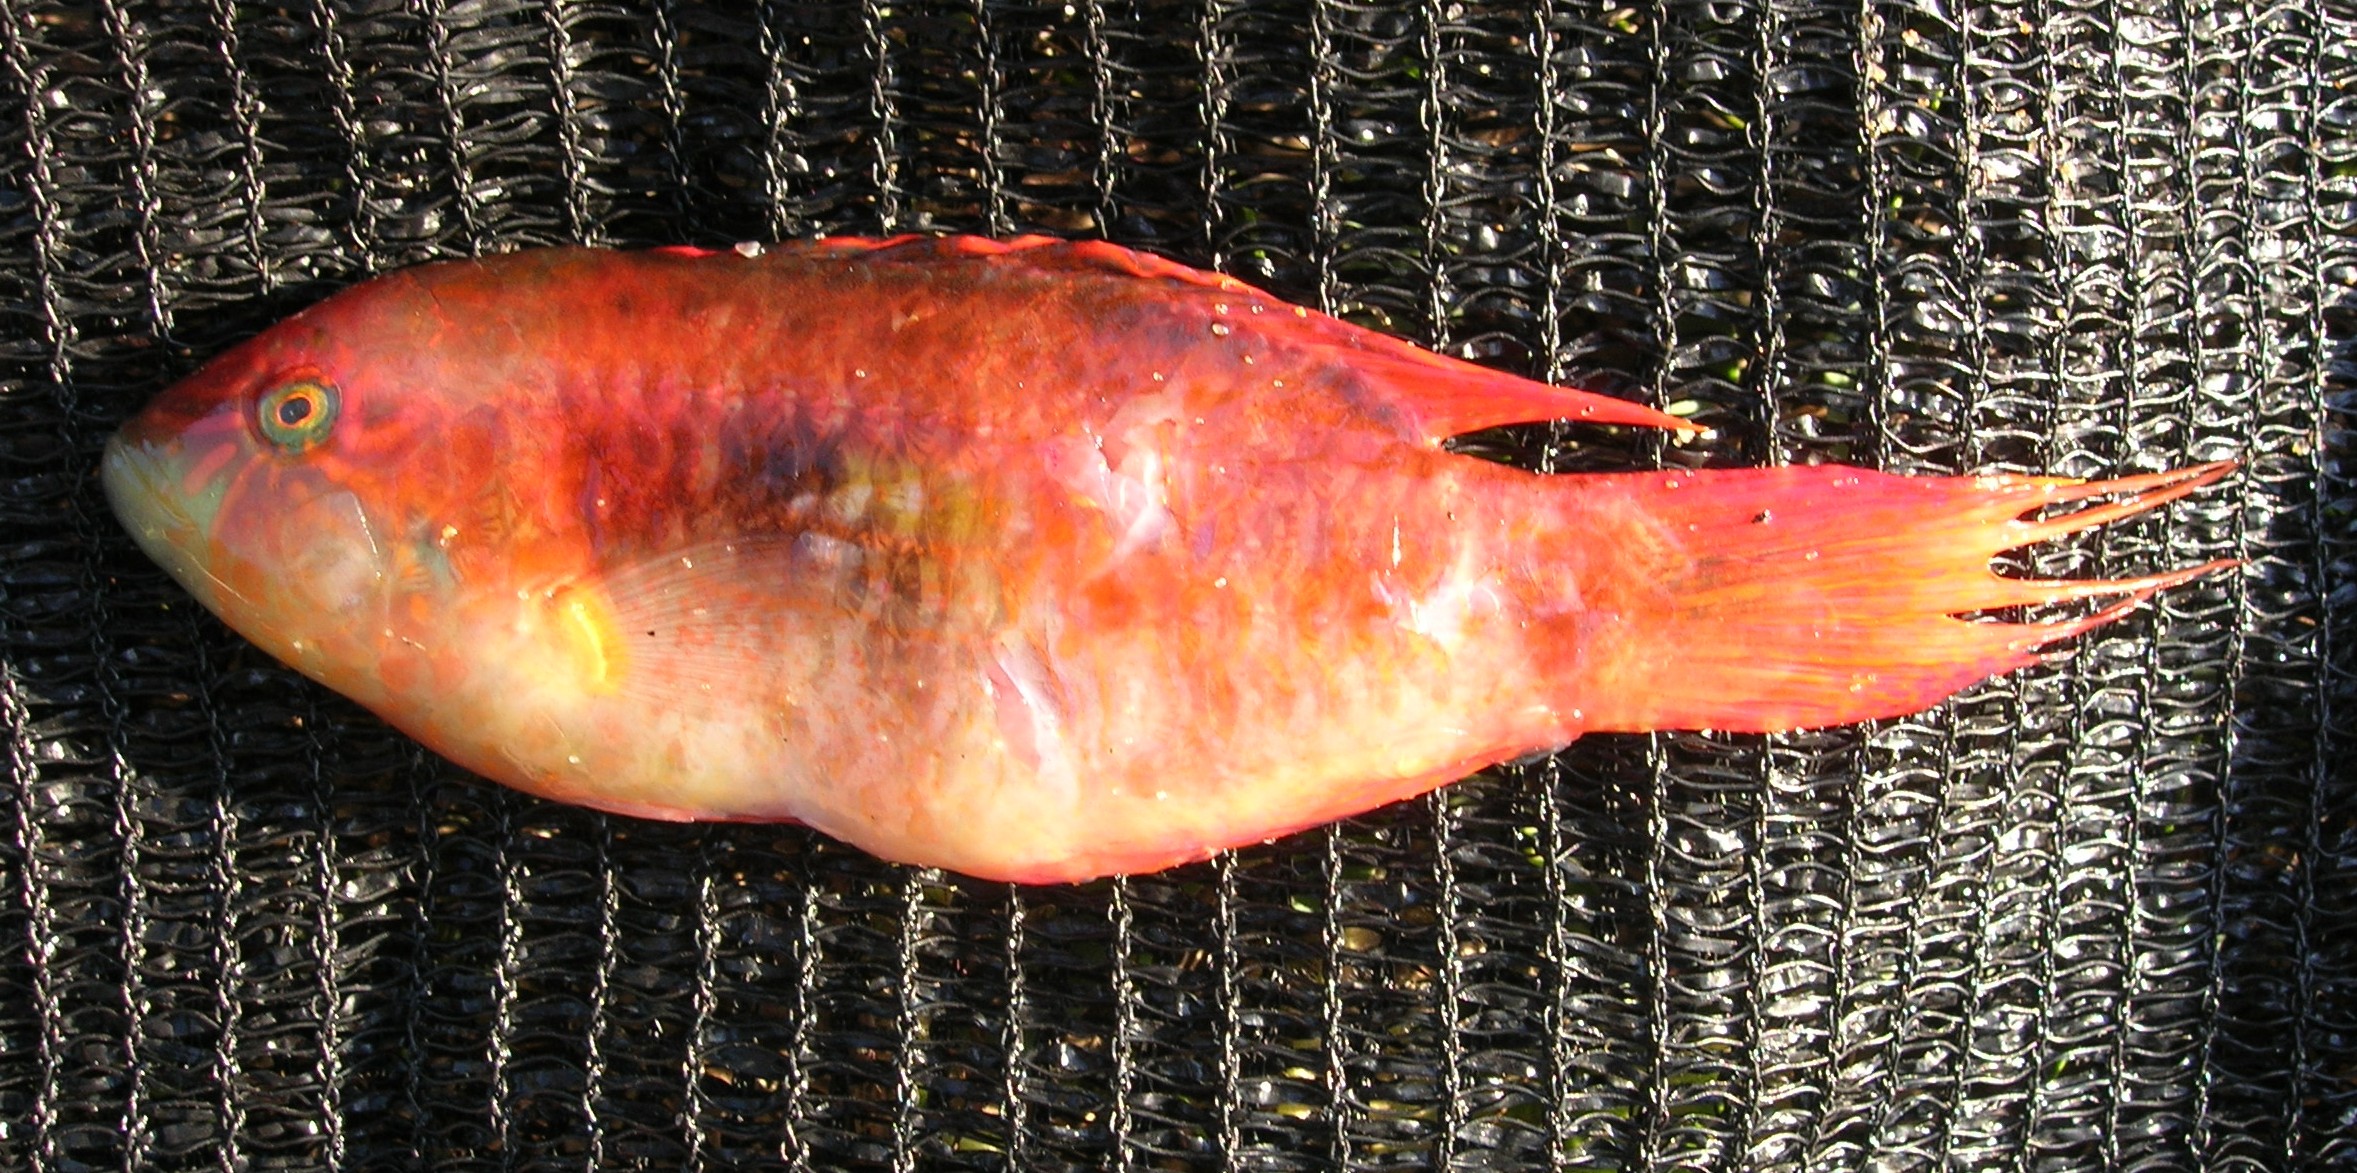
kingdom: Animalia
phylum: Chordata
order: Perciformes
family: Labridae
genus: Oxycheilinus
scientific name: Oxycheilinus bimaculatus
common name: Comettailed wrasse
